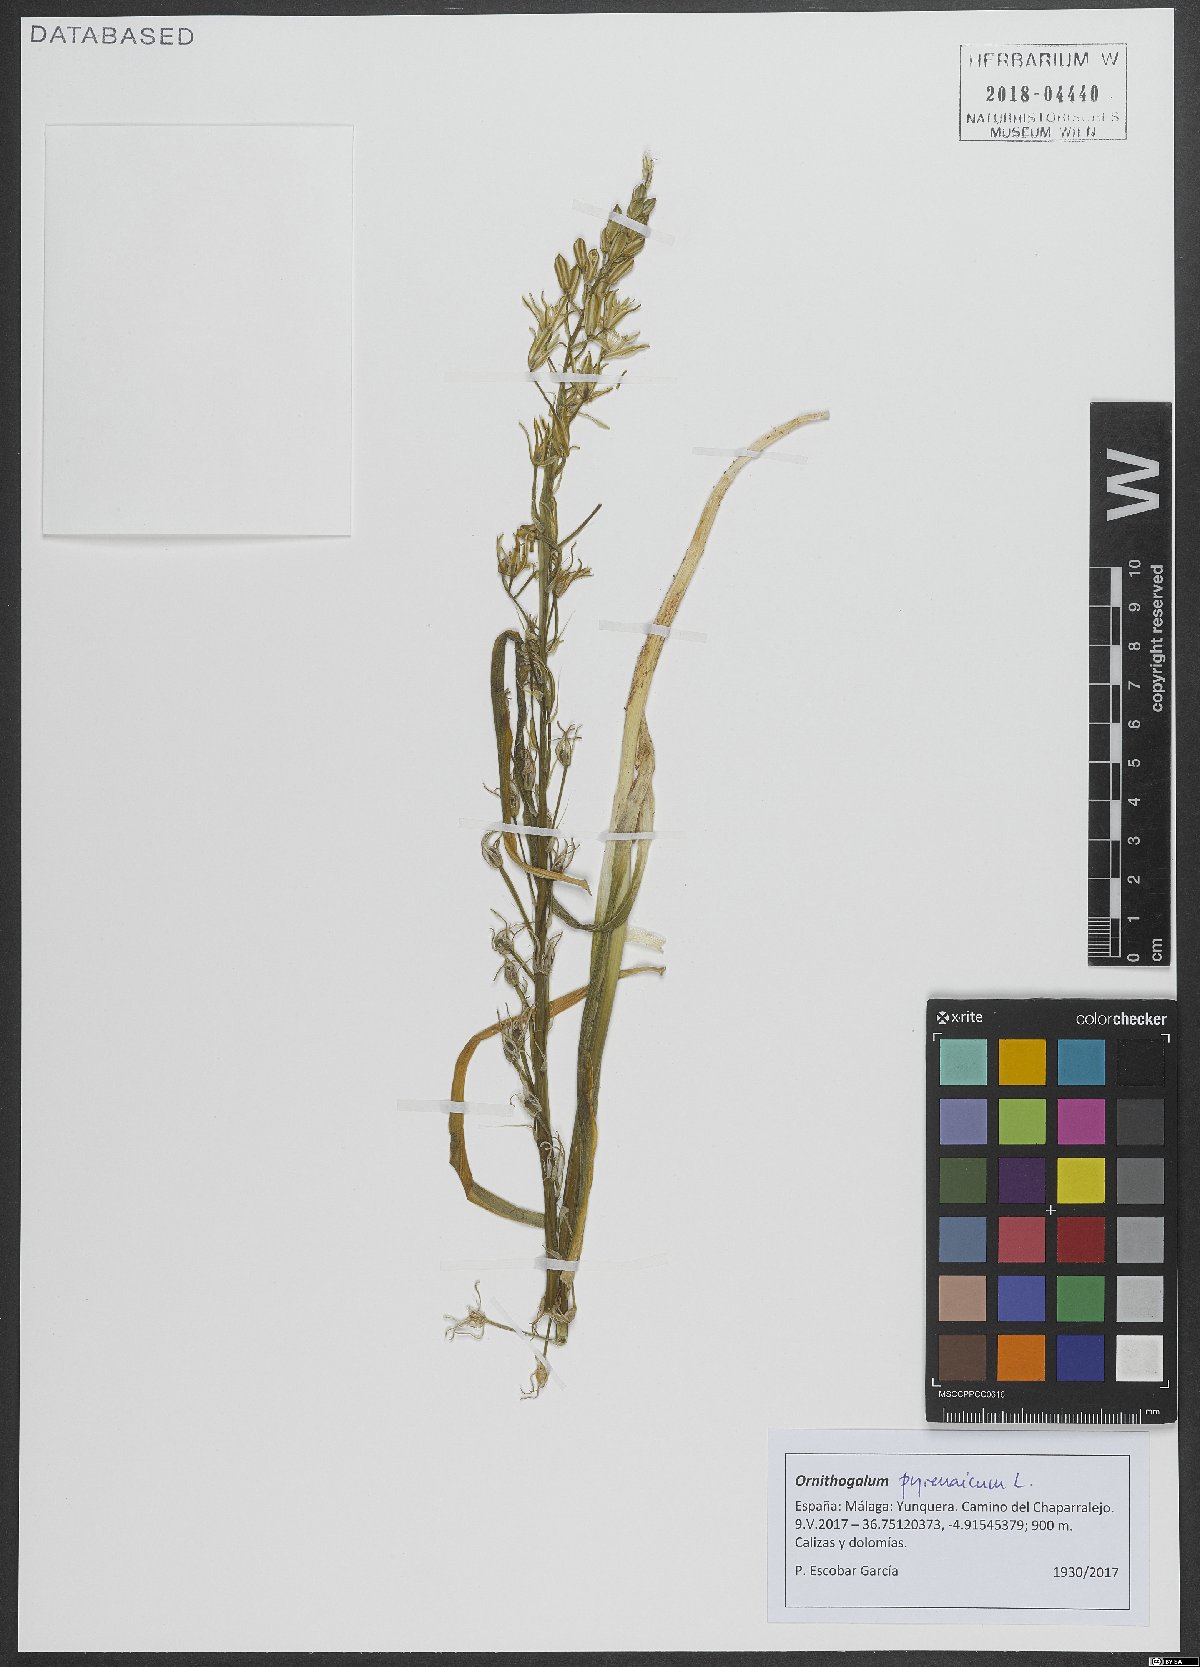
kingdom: Plantae
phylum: Tracheophyta
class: Liliopsida
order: Asparagales
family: Asparagaceae
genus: Ornithogalum
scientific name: Ornithogalum pyrenaicum
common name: Spiked star-of-bethlehem
